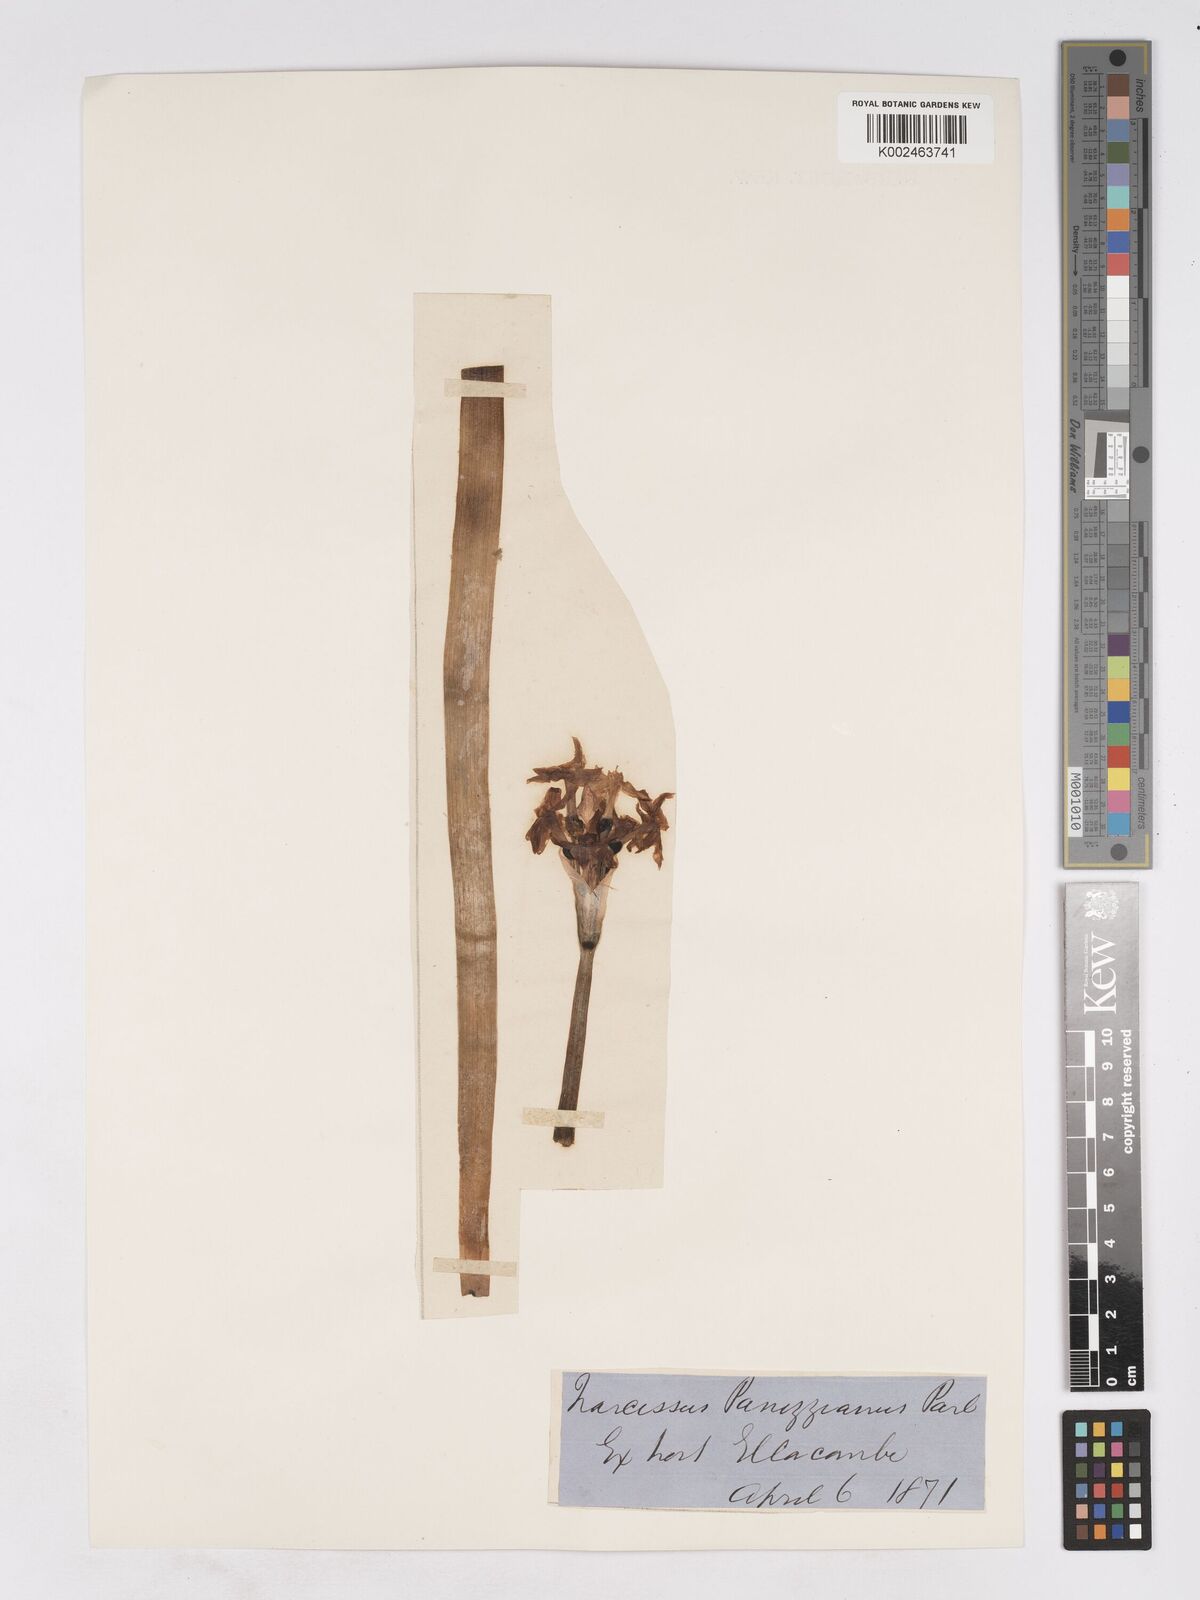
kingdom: Plantae
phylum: Tracheophyta
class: Liliopsida
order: Asparagales
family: Amaryllidaceae
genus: Narcissus
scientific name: Narcissus
